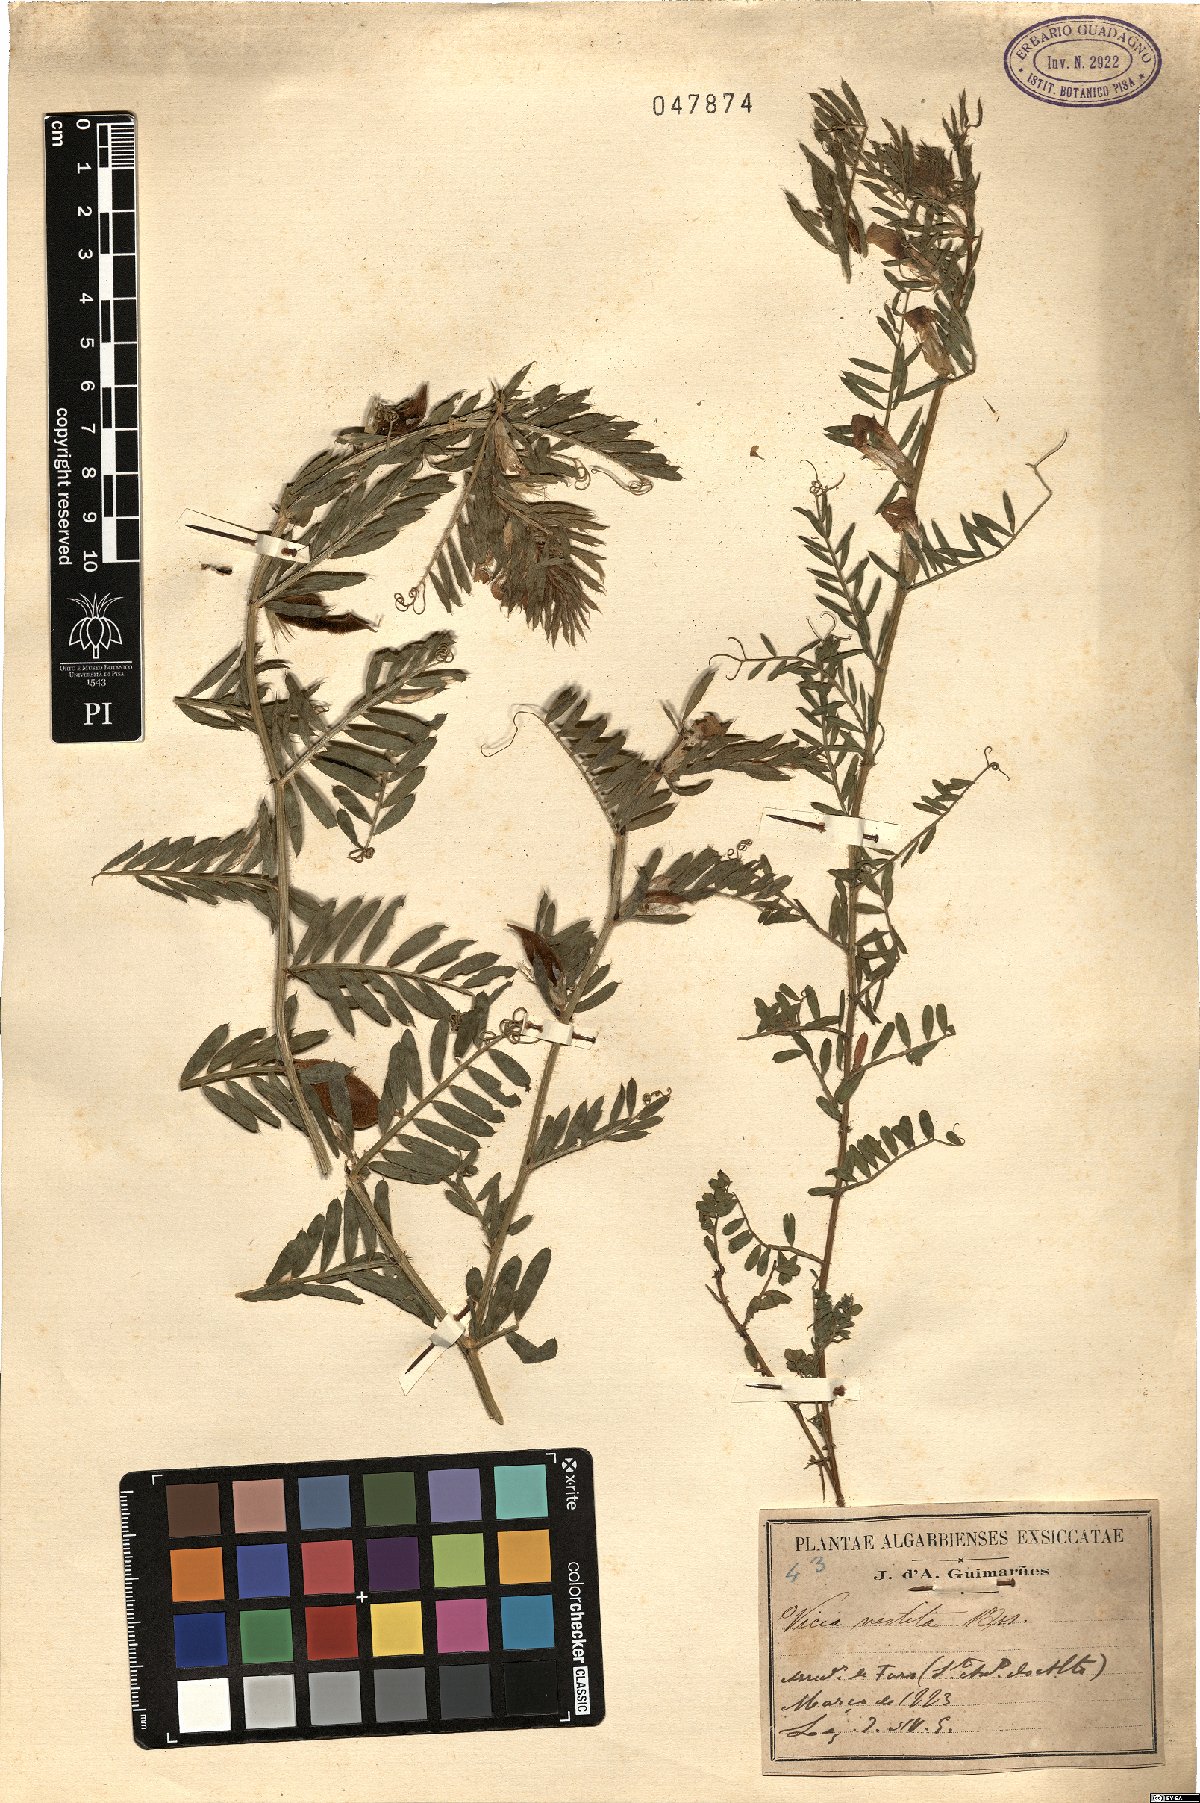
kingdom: Plantae
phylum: Tracheophyta
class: Magnoliopsida
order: Fabales
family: Fabaceae
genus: Vicia
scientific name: Vicia lutea
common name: Smooth yellow vetch
